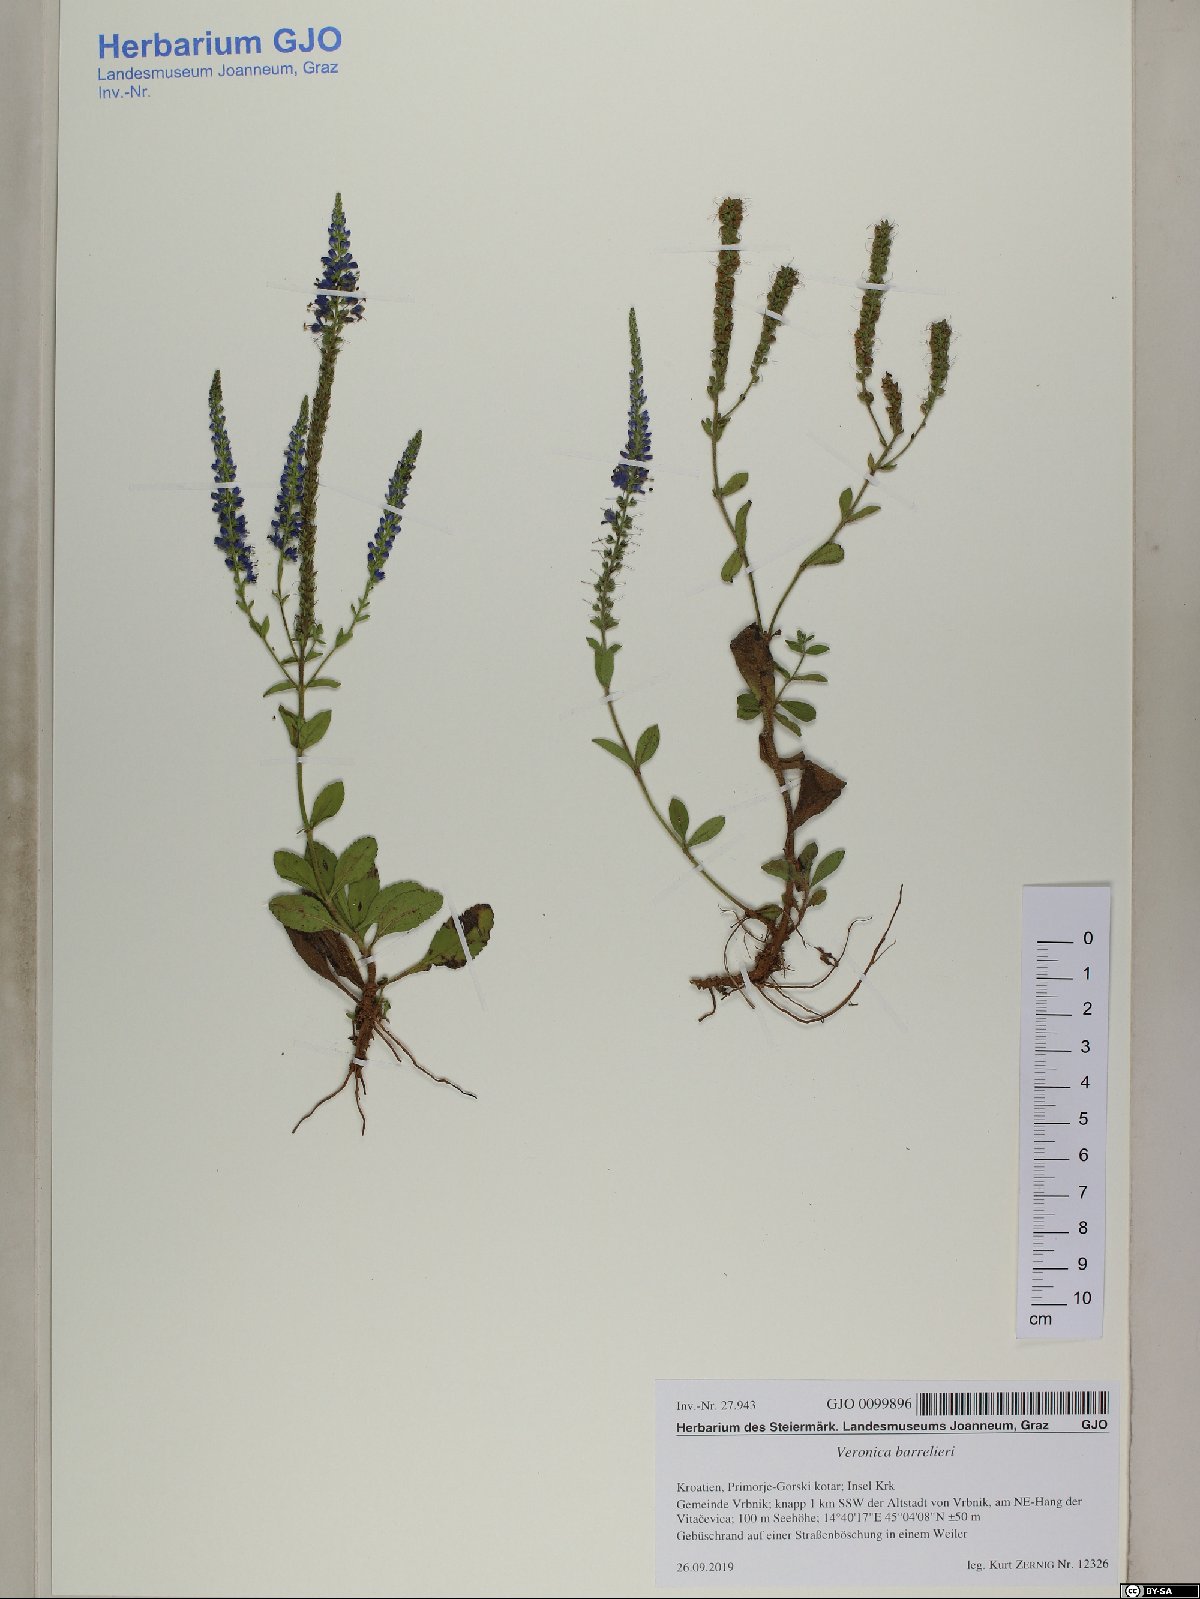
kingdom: Plantae
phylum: Tracheophyta
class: Magnoliopsida
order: Lamiales
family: Plantaginaceae
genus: Veronica
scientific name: Veronica barrelieri
